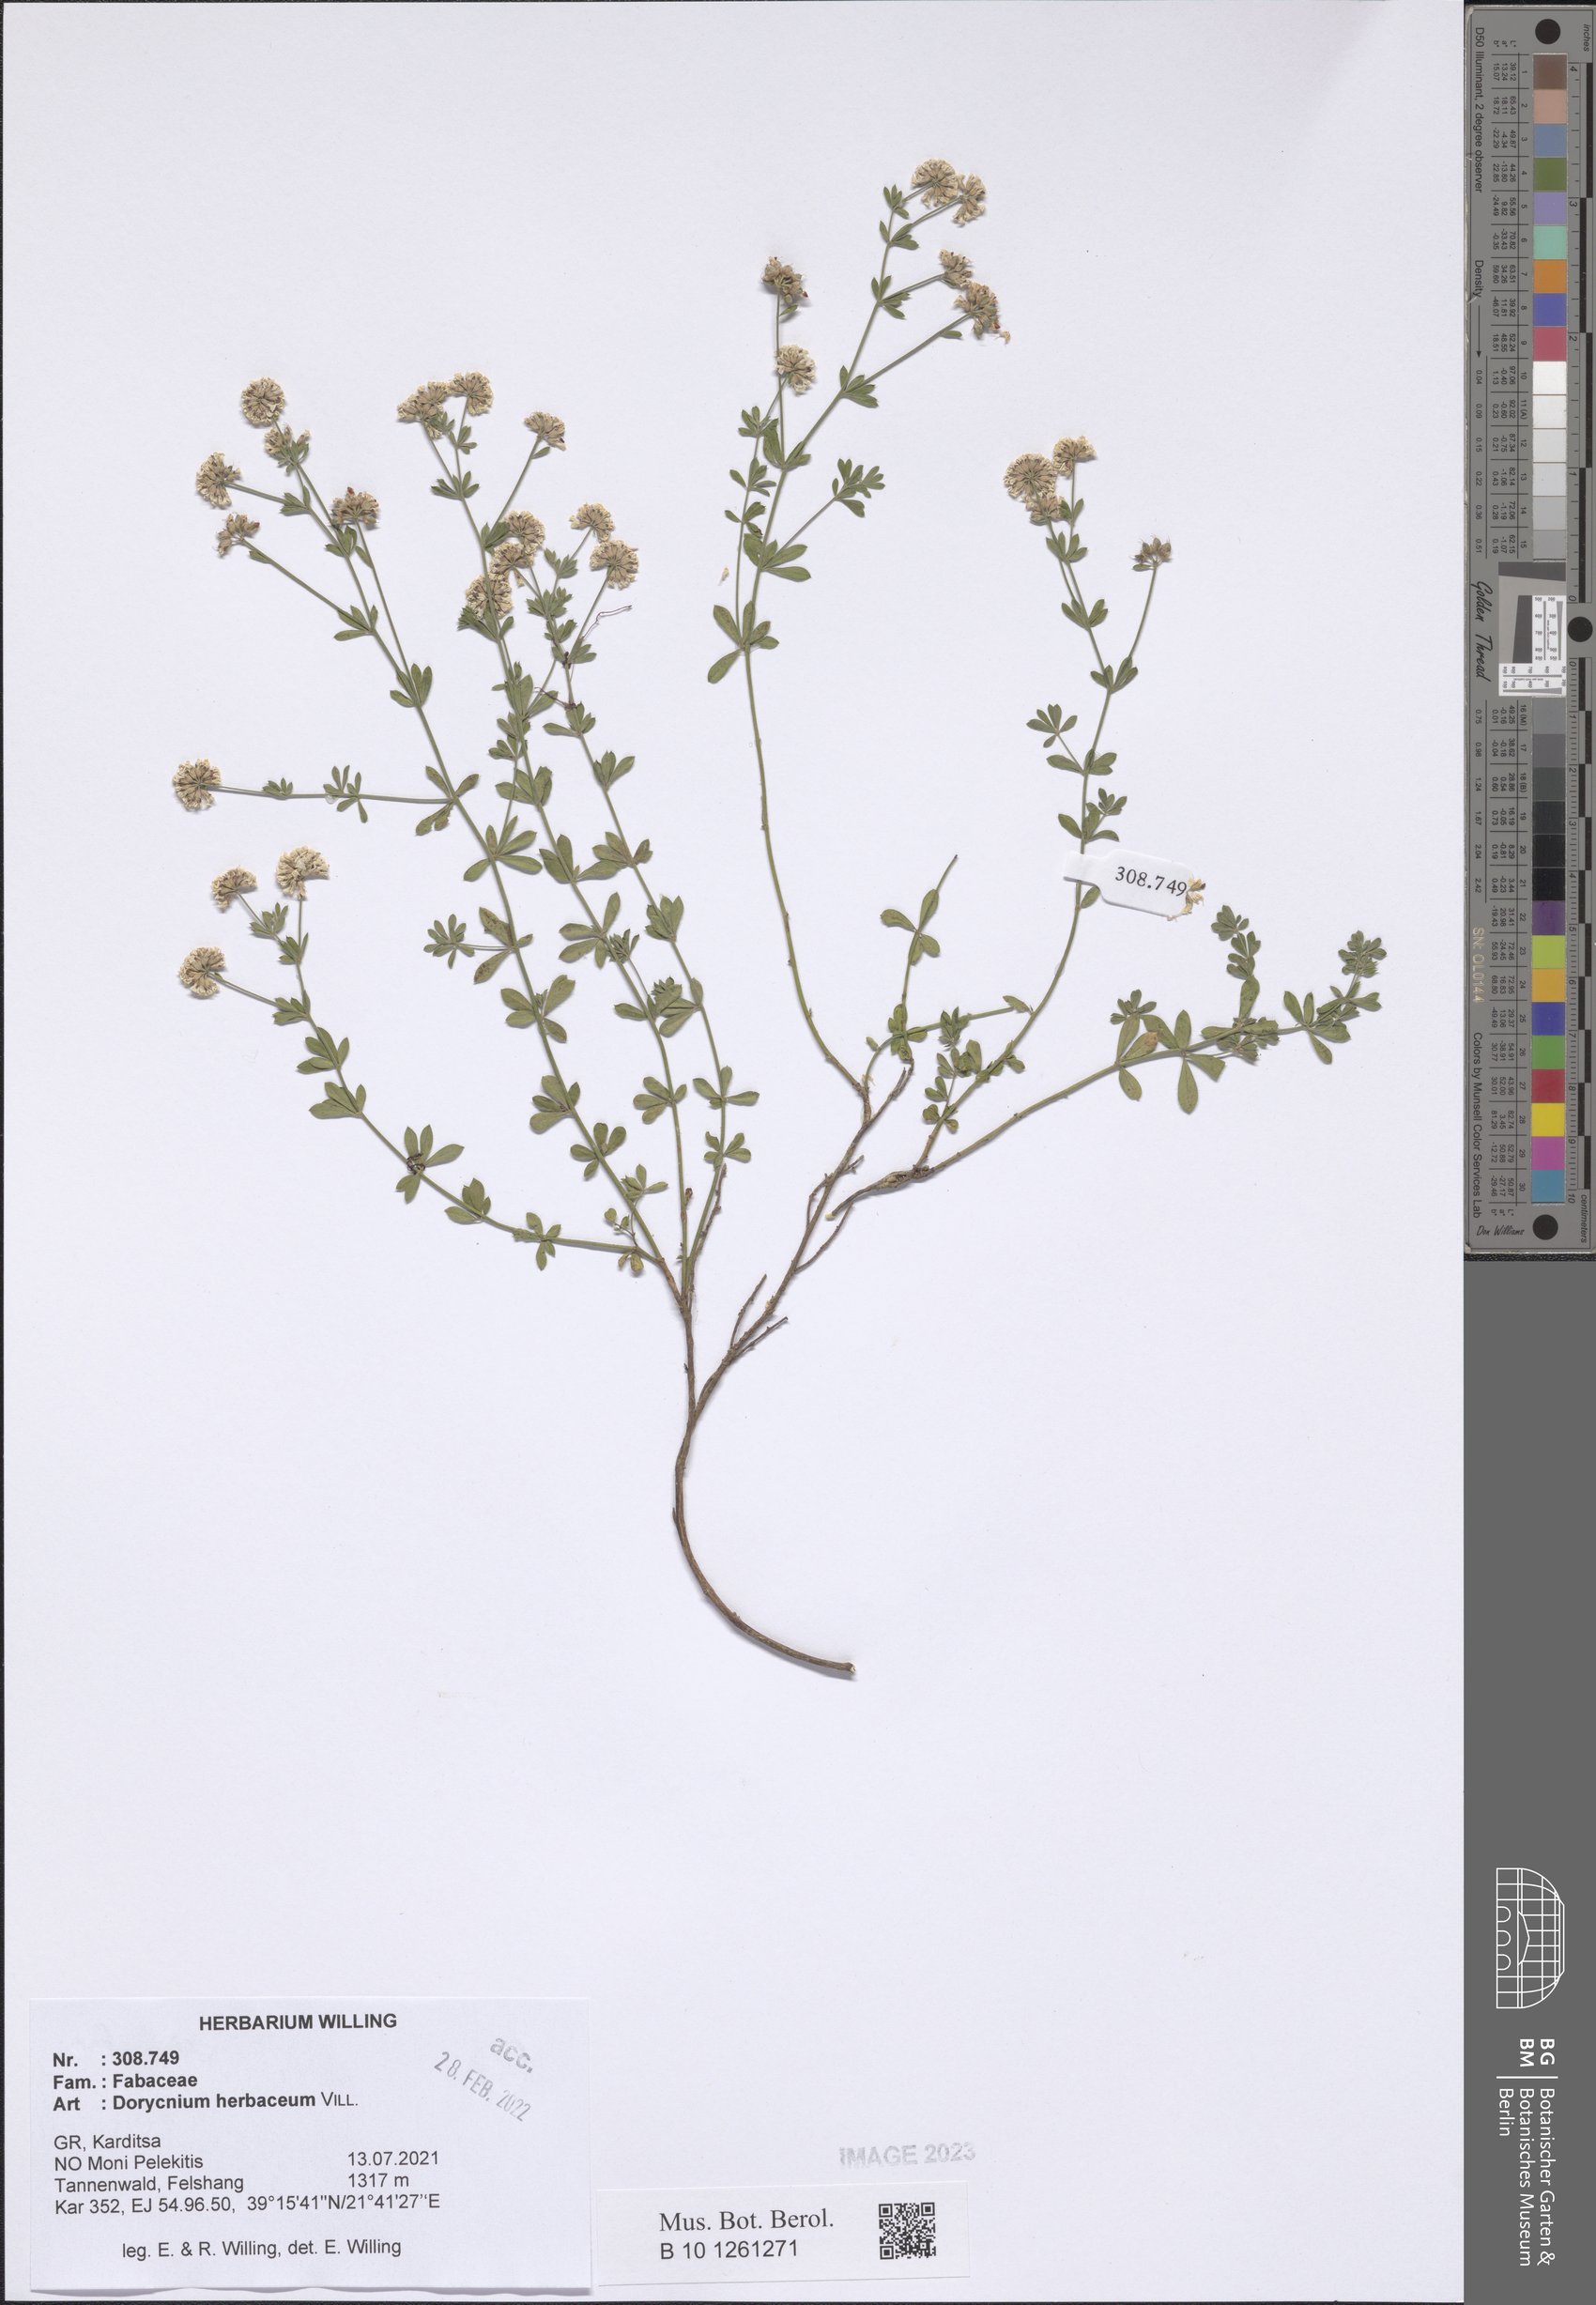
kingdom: Plantae
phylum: Tracheophyta
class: Magnoliopsida
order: Fabales
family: Fabaceae
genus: Lotus
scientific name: Lotus herbaceus
